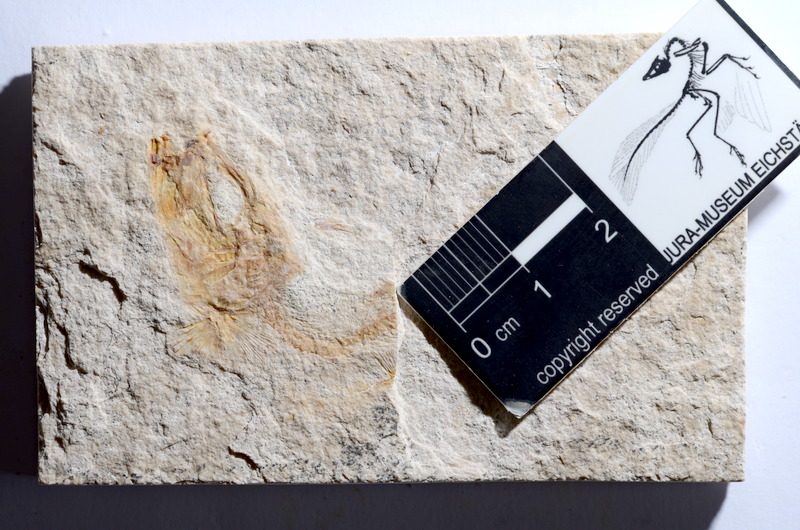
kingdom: Animalia
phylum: Chordata
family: Ascalaboidae
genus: Tharsis
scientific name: Tharsis dubius
